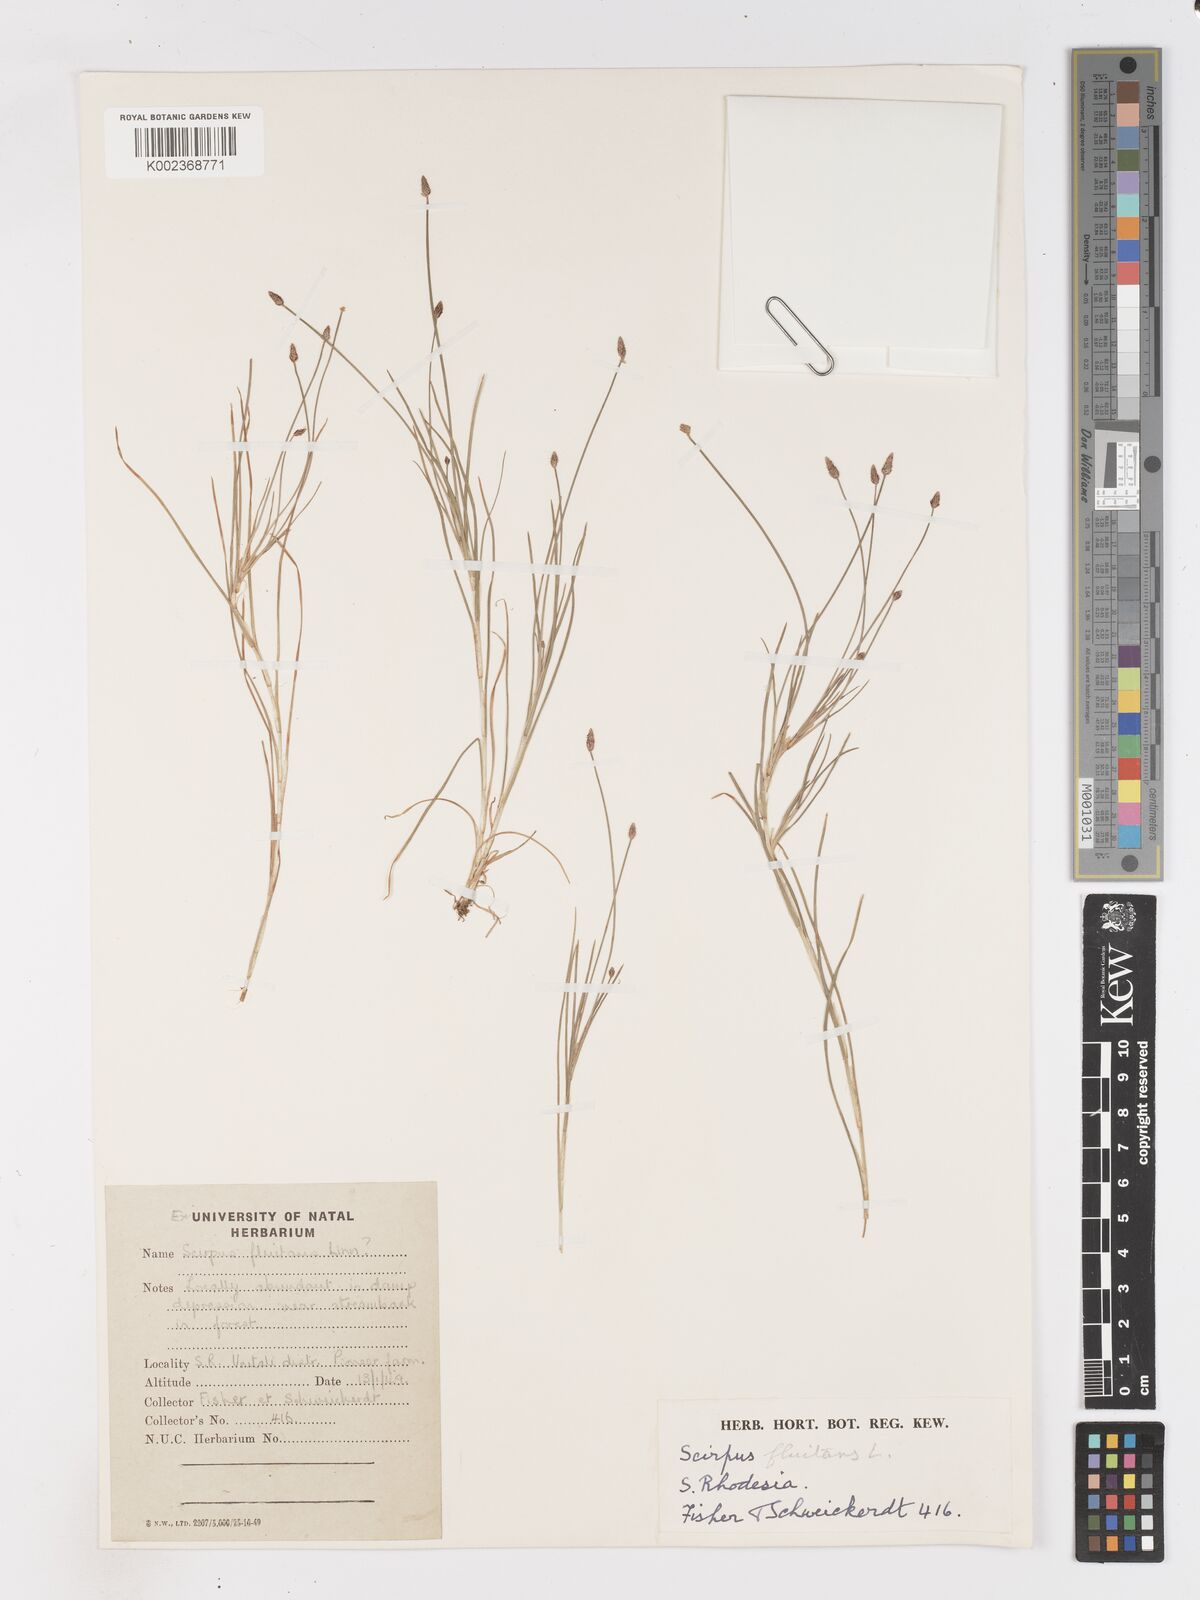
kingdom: Plantae
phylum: Tracheophyta
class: Liliopsida
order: Poales
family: Cyperaceae
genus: Isolepis
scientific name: Isolepis fluitans
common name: Floating club-rush
